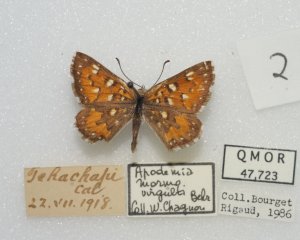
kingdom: Animalia
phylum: Arthropoda
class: Insecta
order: Lepidoptera
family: Riodinidae
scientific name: Riodinidae
